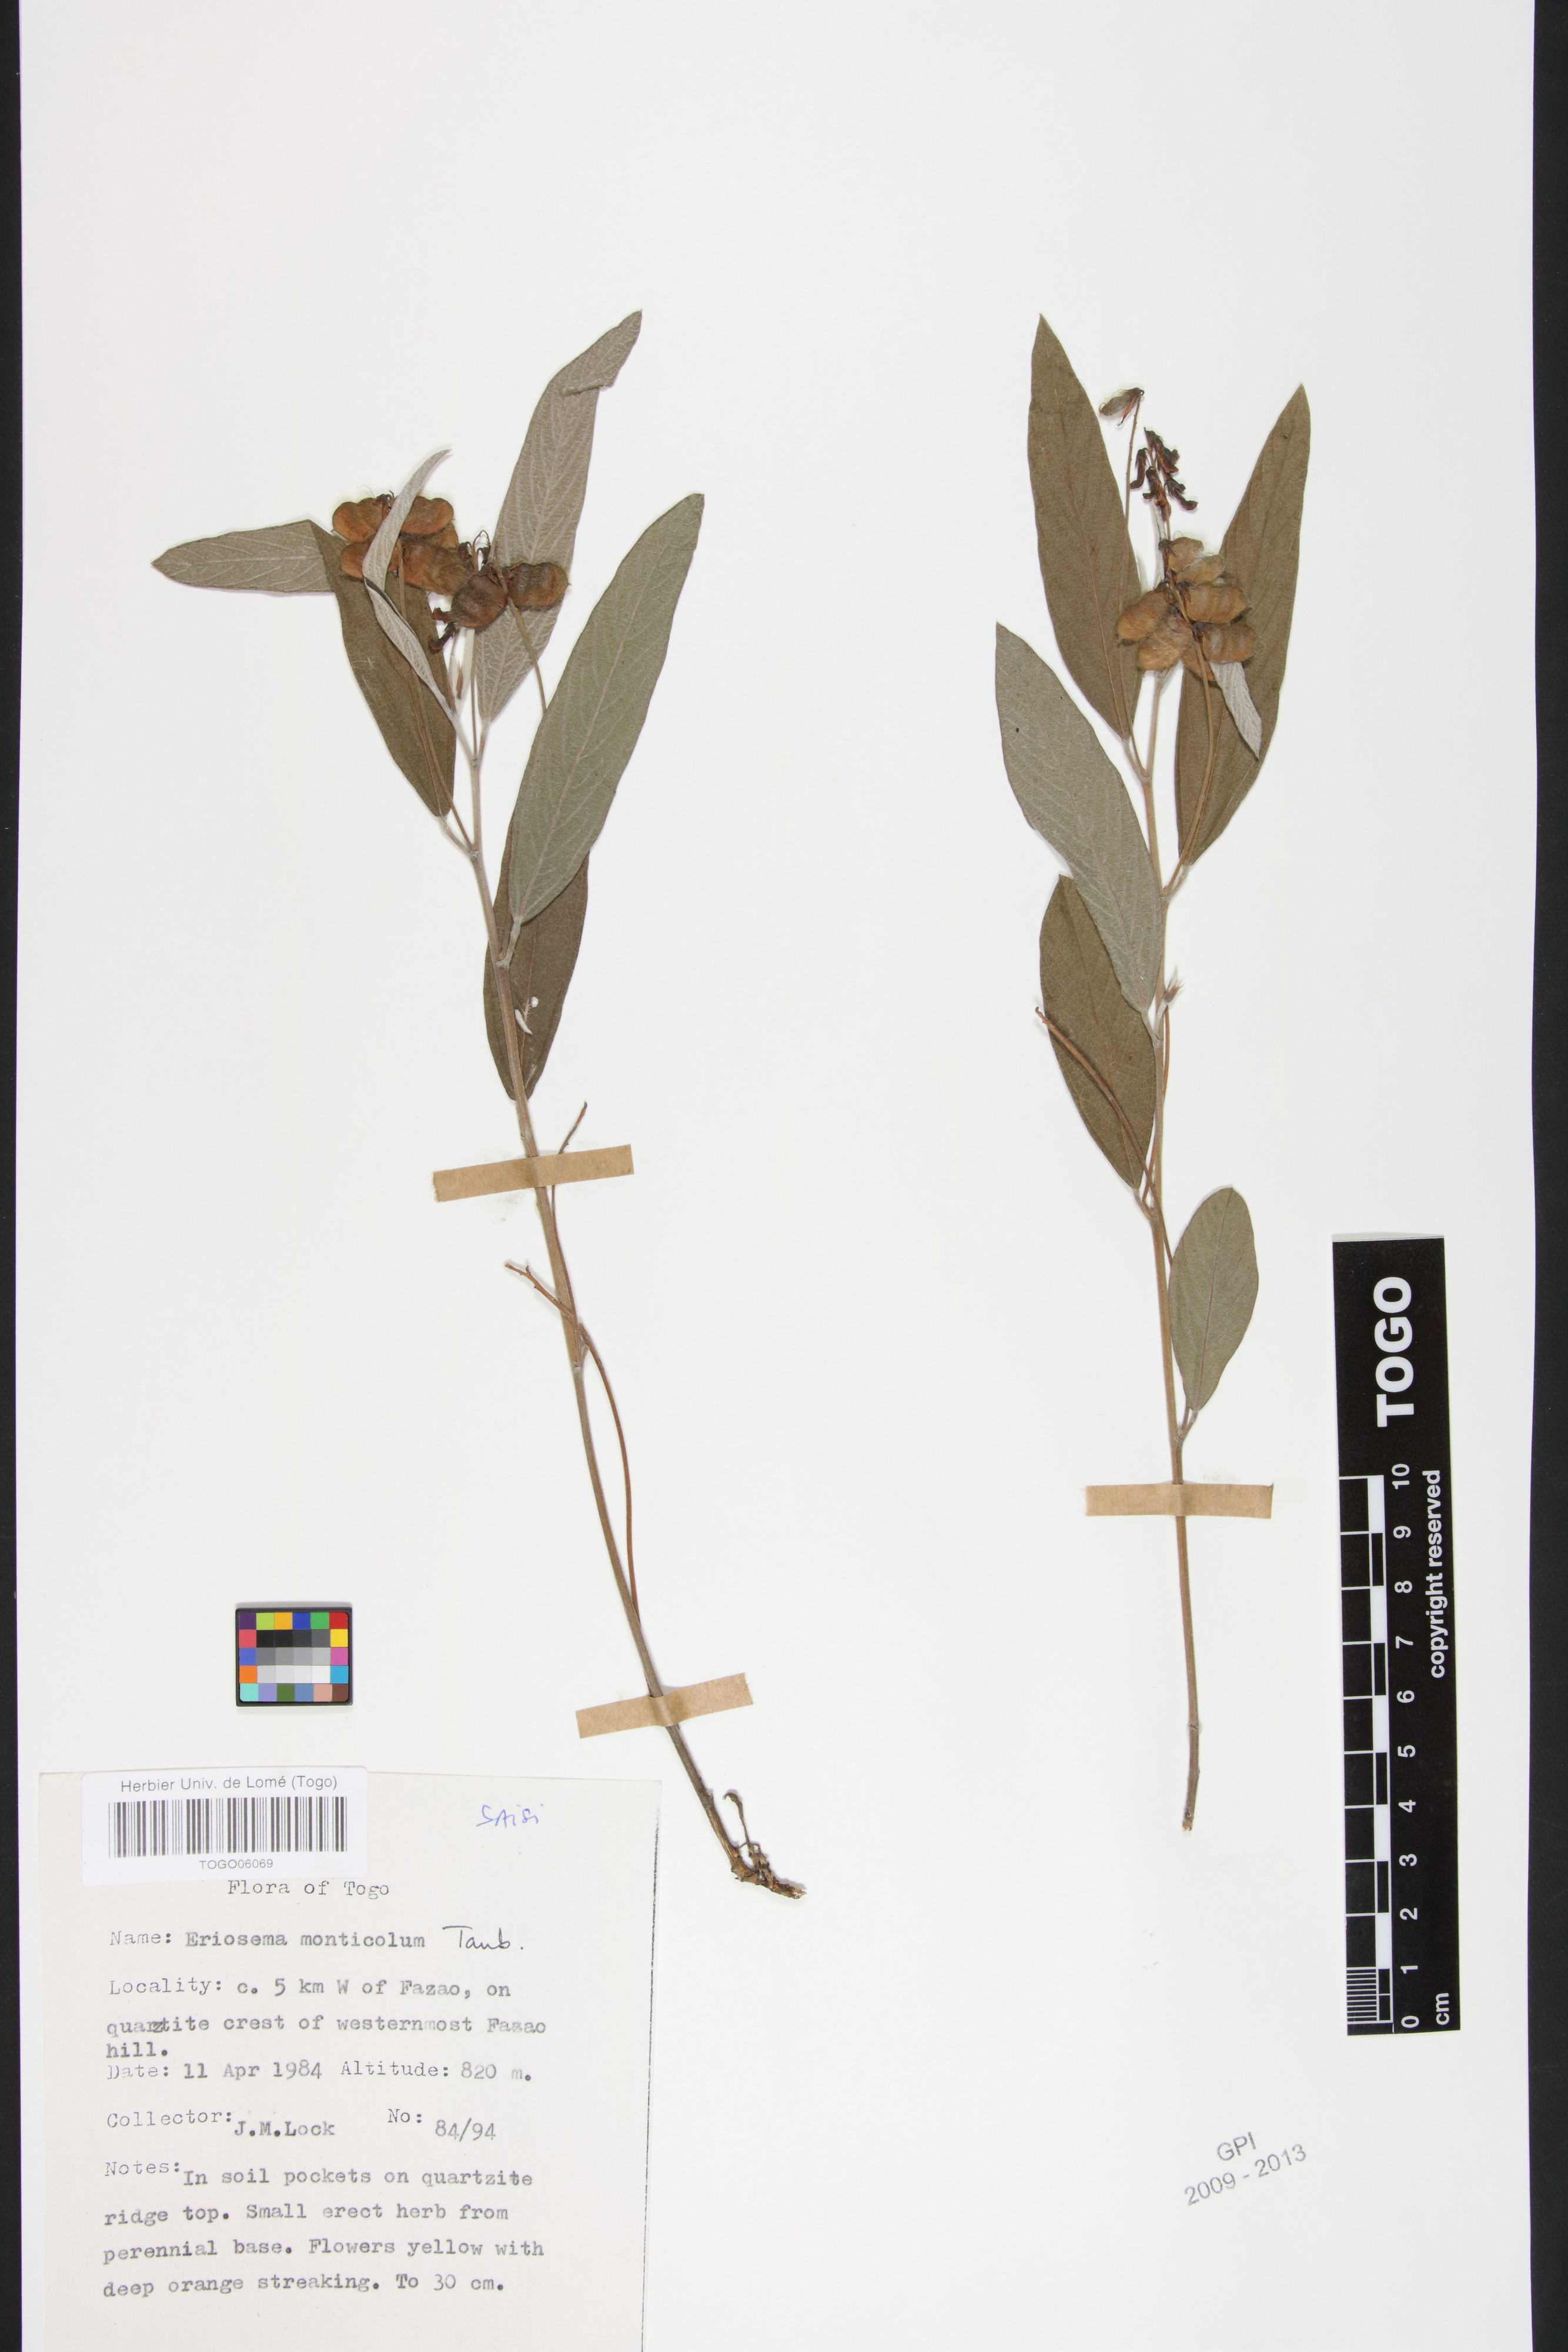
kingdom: Plantae
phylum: Tracheophyta
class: Magnoliopsida
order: Fabales
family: Fabaceae
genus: Eriosema
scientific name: Eriosema monticola
